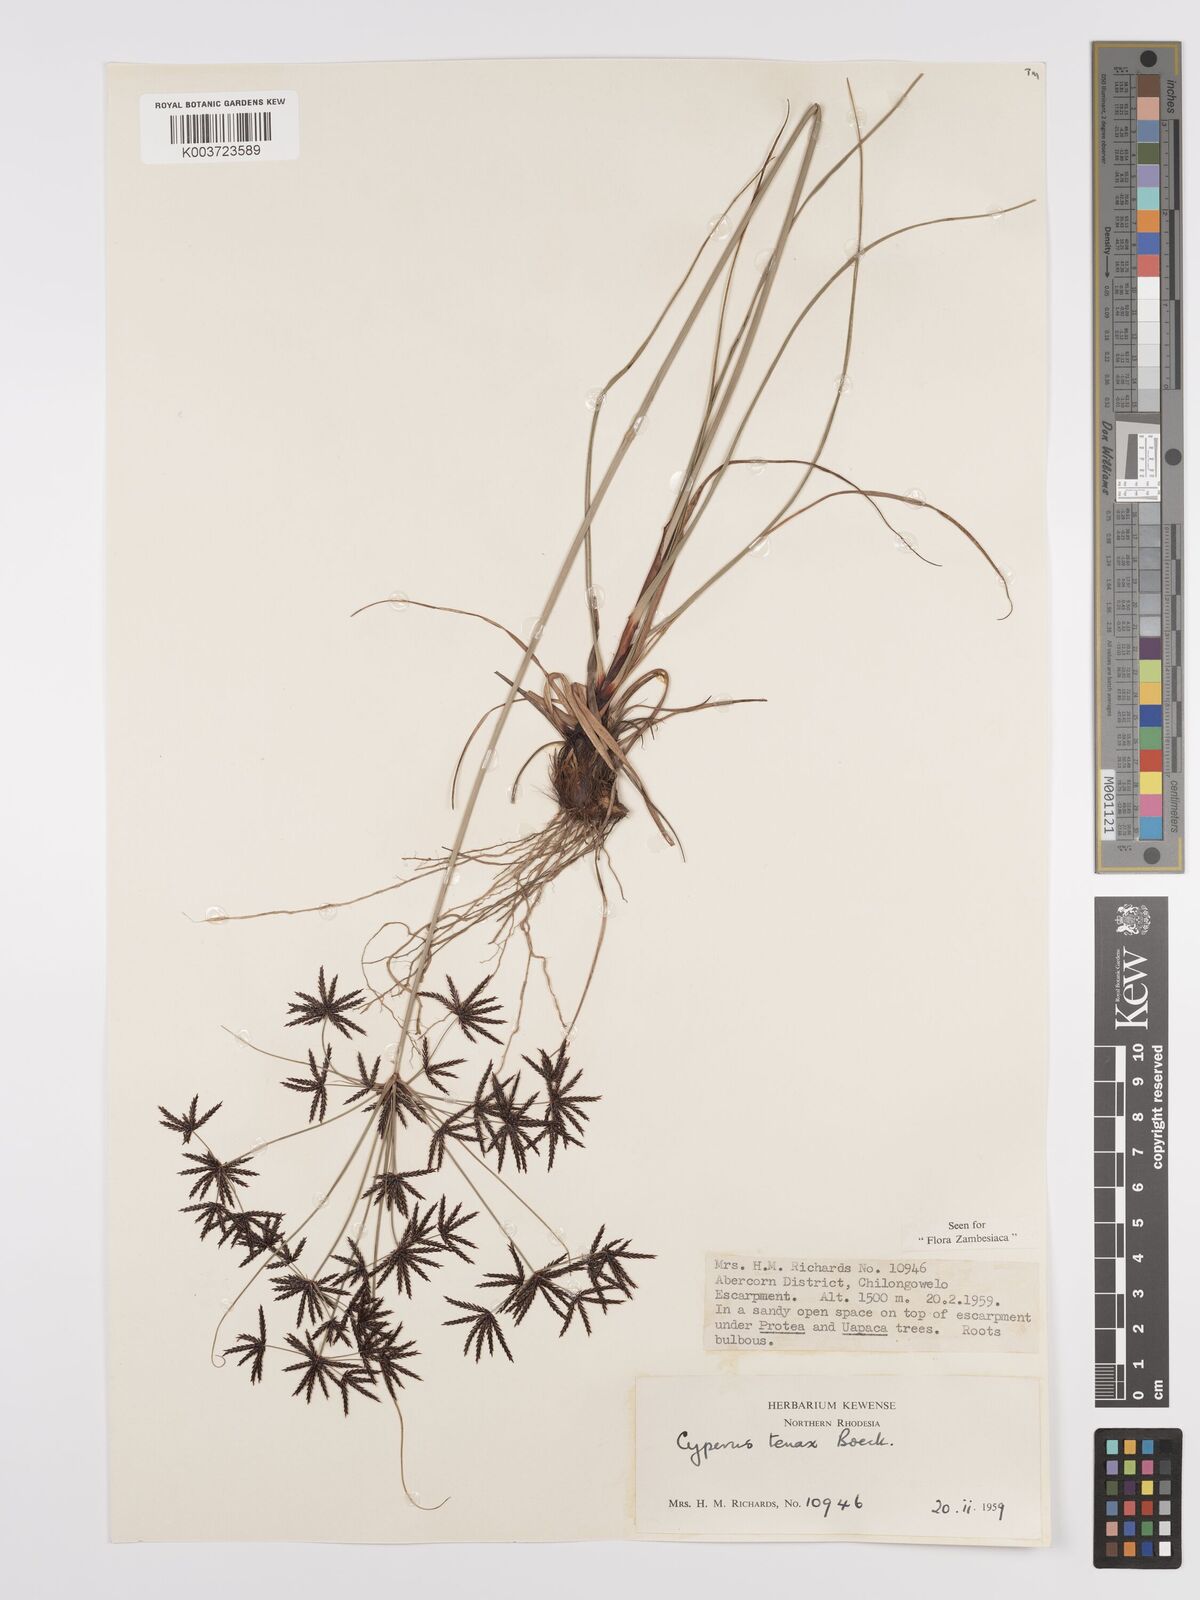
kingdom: Plantae
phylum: Tracheophyta
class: Liliopsida
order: Poales
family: Cyperaceae
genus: Cyperus
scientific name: Cyperus tenax
